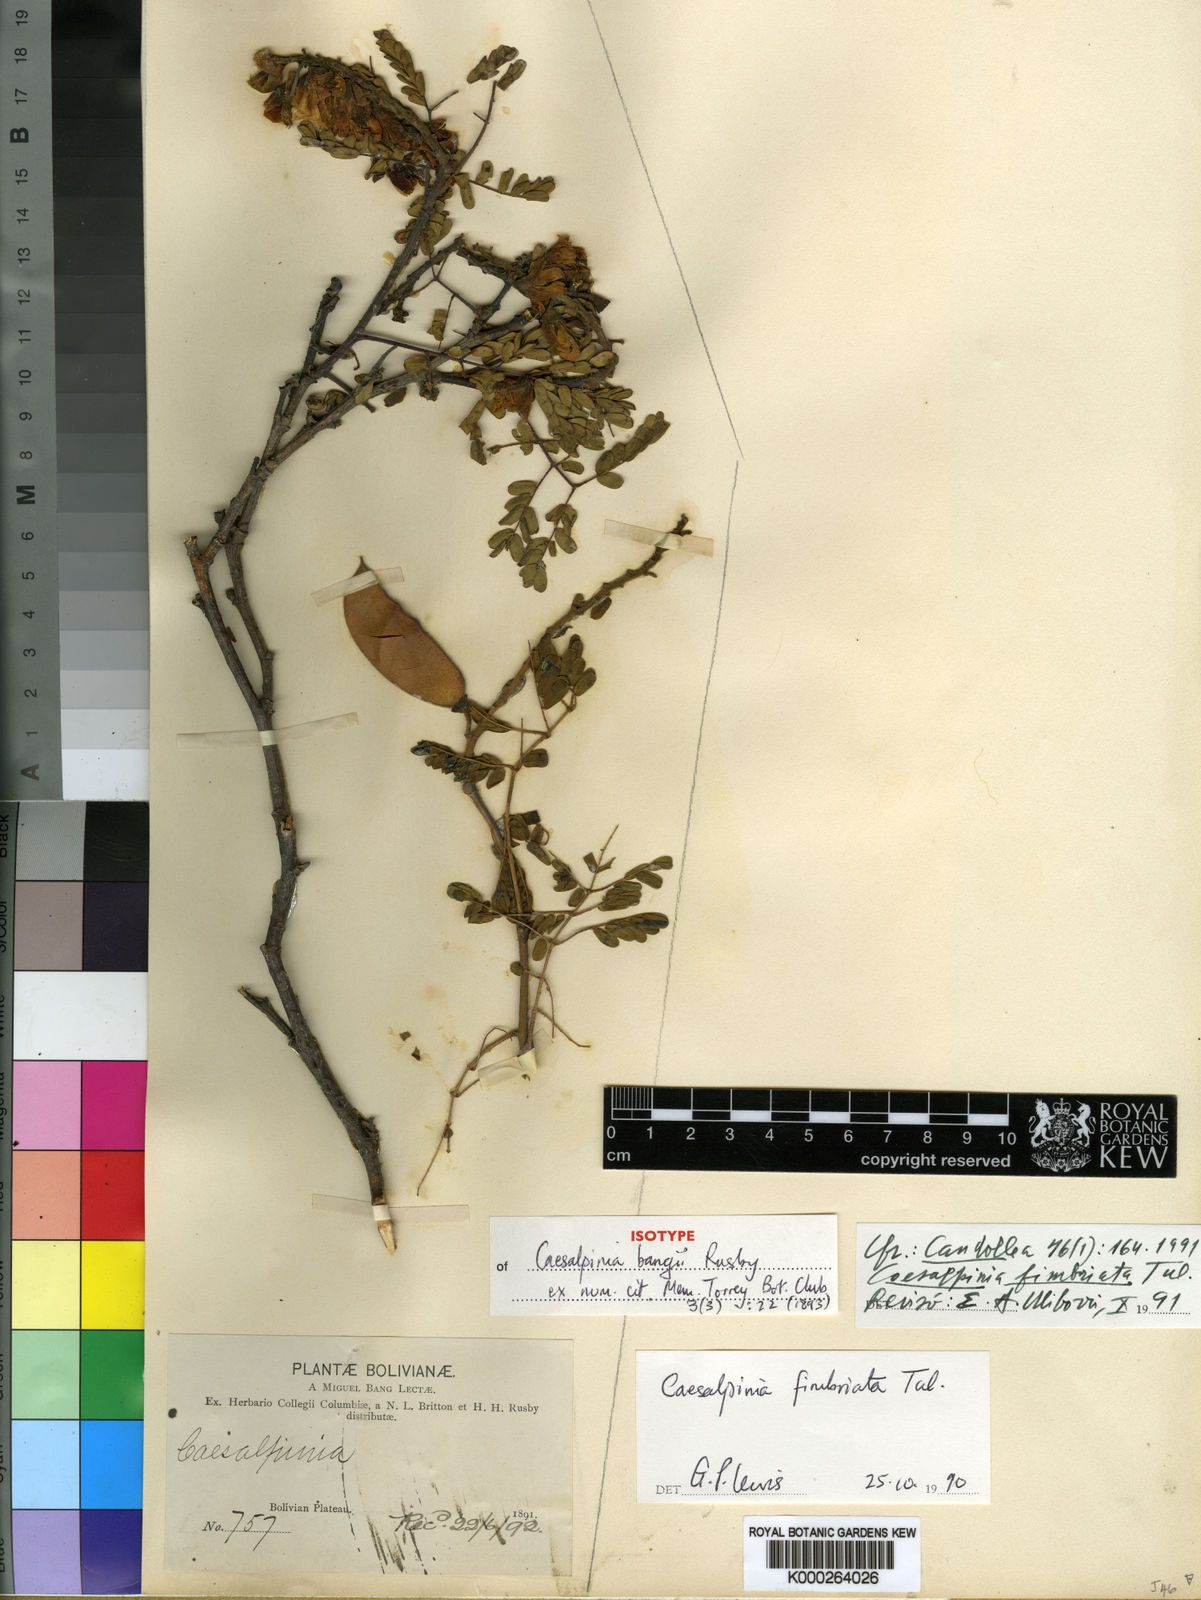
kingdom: Plantae
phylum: Tracheophyta
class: Magnoliopsida
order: Fabales
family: Fabaceae
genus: Caesalpinia
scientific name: Caesalpinia
